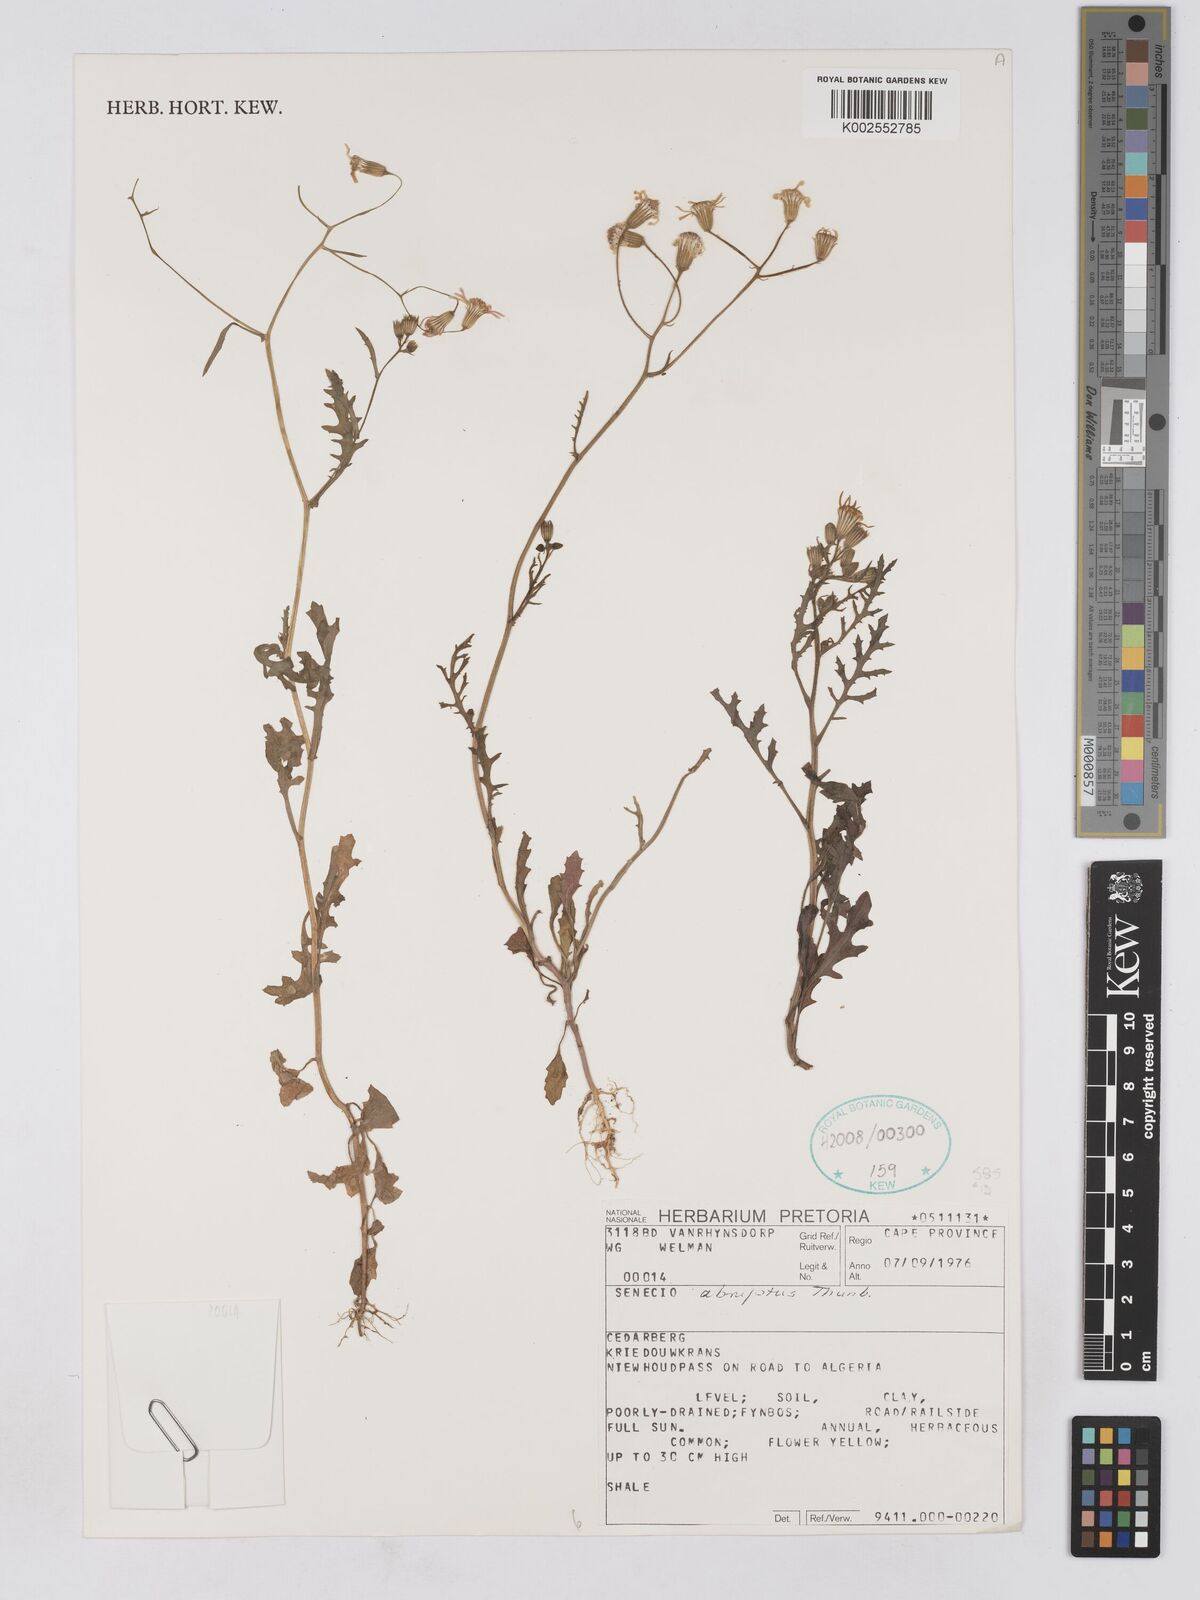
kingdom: Plantae
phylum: Tracheophyta
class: Magnoliopsida
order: Asterales
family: Asteraceae
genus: Senecio
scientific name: Senecio abruptus
